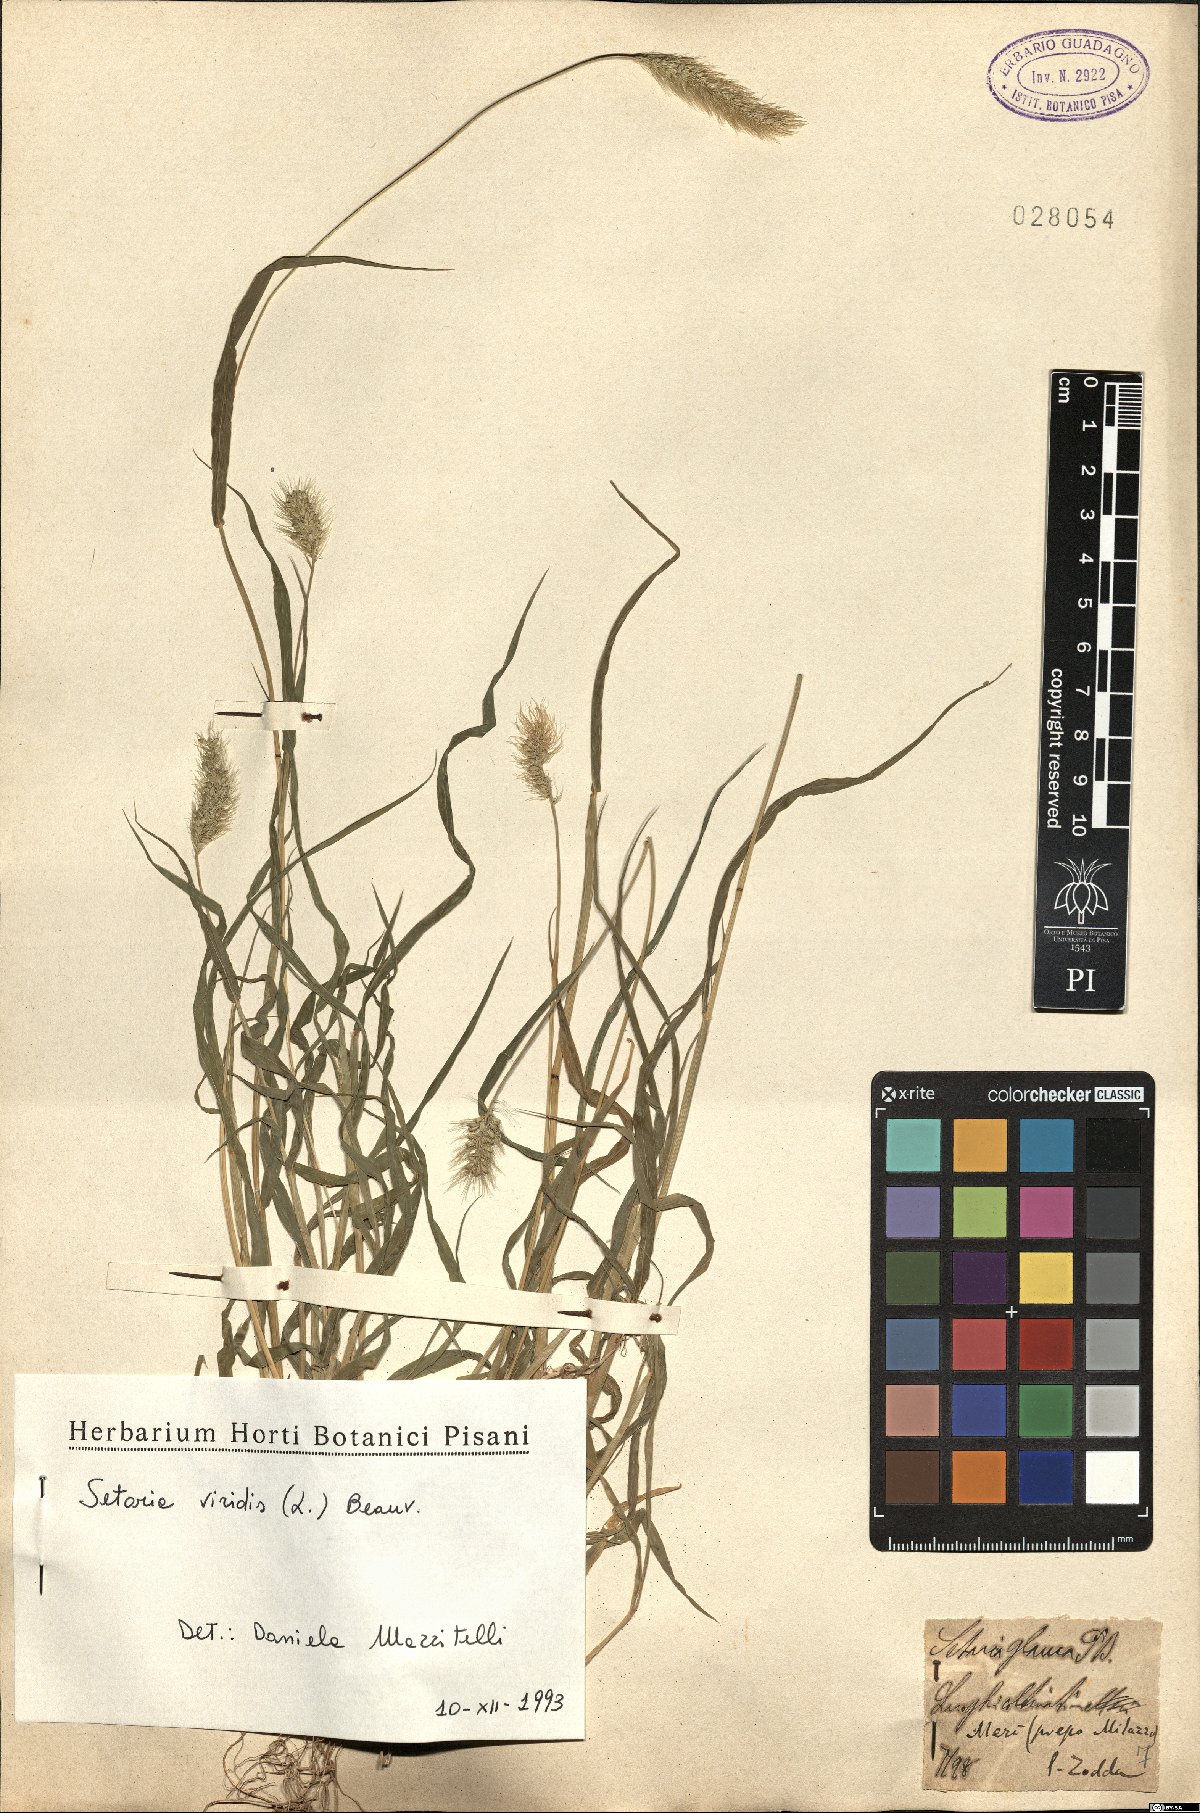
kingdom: Plantae
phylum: Tracheophyta
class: Liliopsida
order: Poales
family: Poaceae
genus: Setaria
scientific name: Setaria viridis
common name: Green bristlegrass
